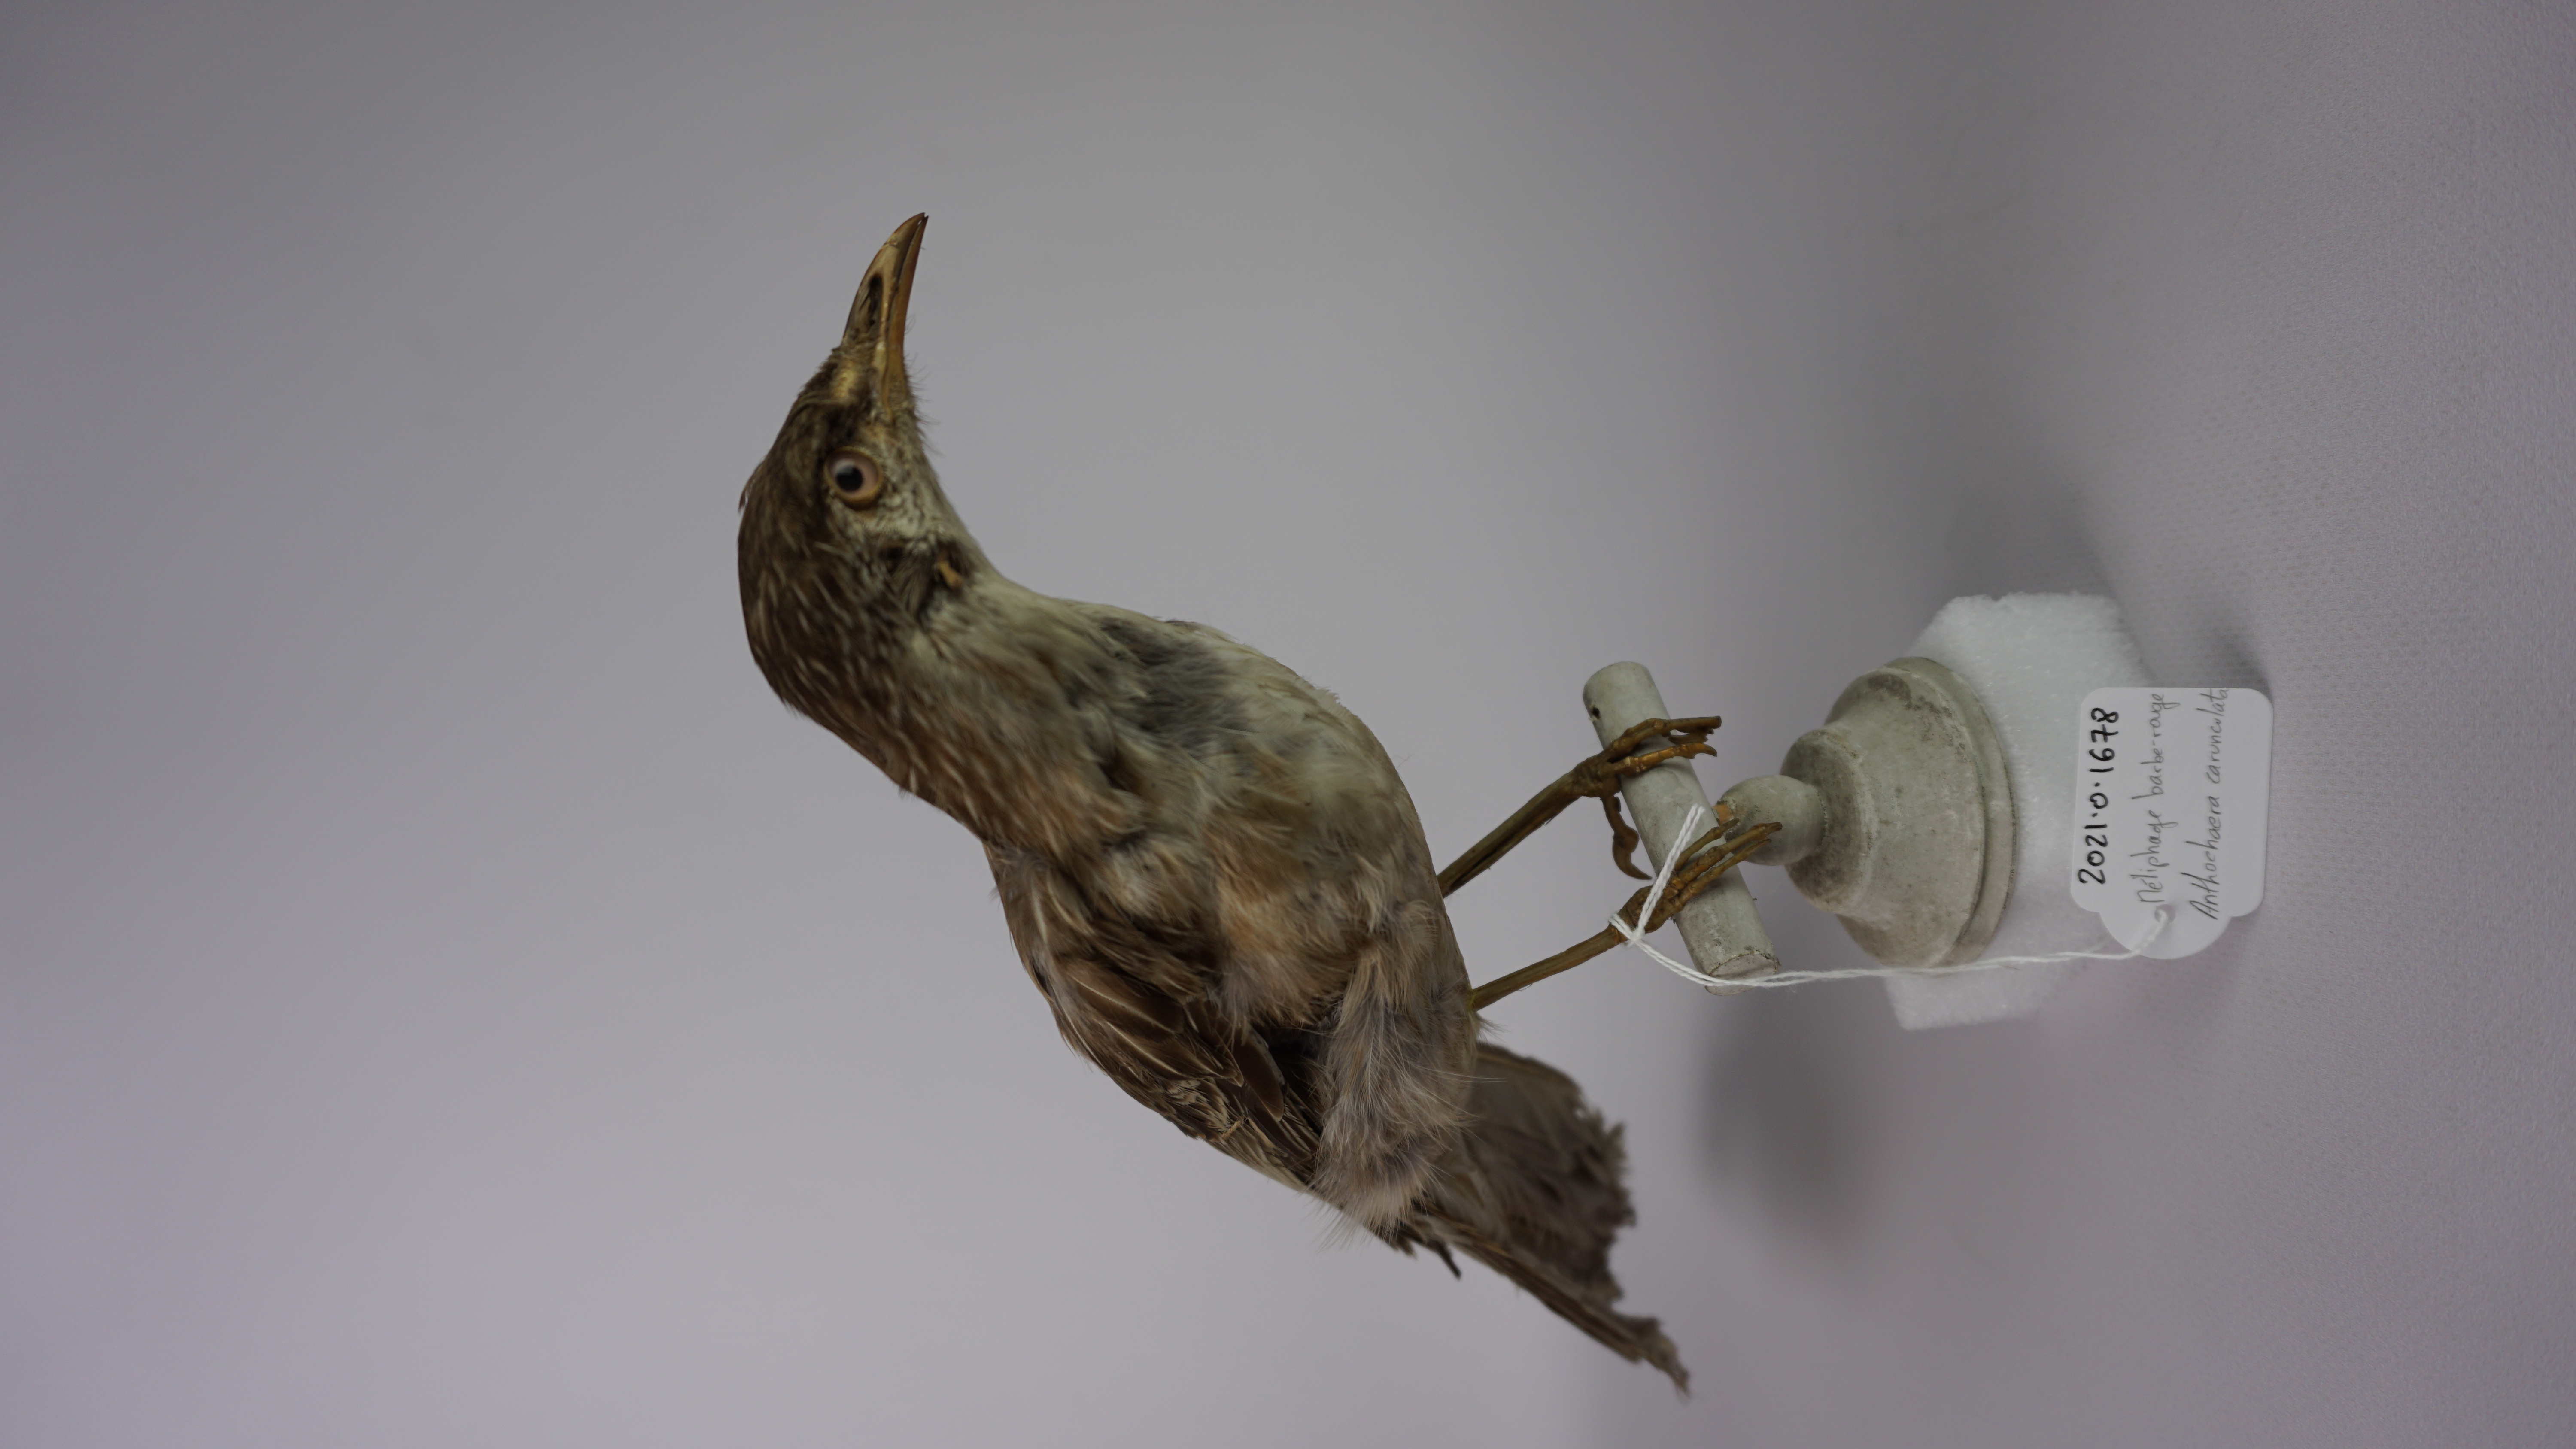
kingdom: Animalia
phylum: Chordata
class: Aves
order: Passeriformes
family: Meliphagidae
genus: Anthochaera
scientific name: Anthochaera carunculata
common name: Red wattlebird
